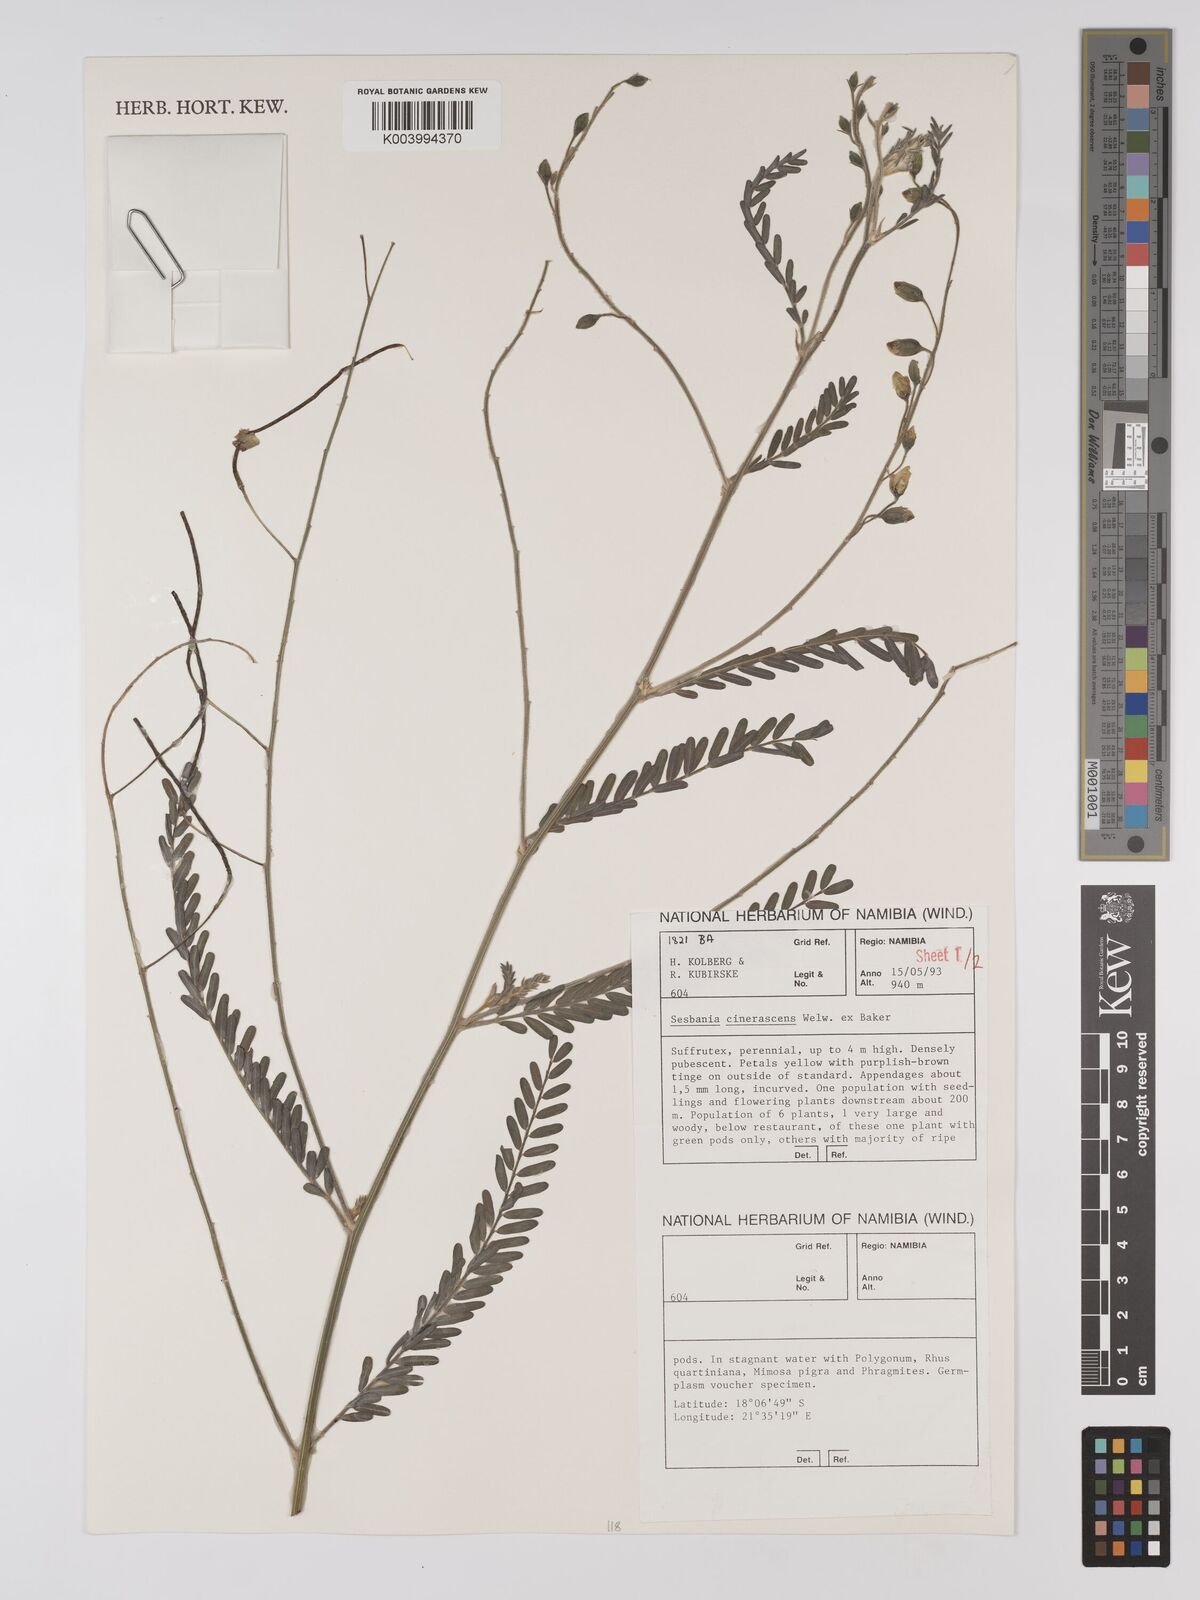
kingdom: Plantae
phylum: Tracheophyta
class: Magnoliopsida
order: Fabales
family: Fabaceae
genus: Sesbania
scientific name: Sesbania cinerascens
